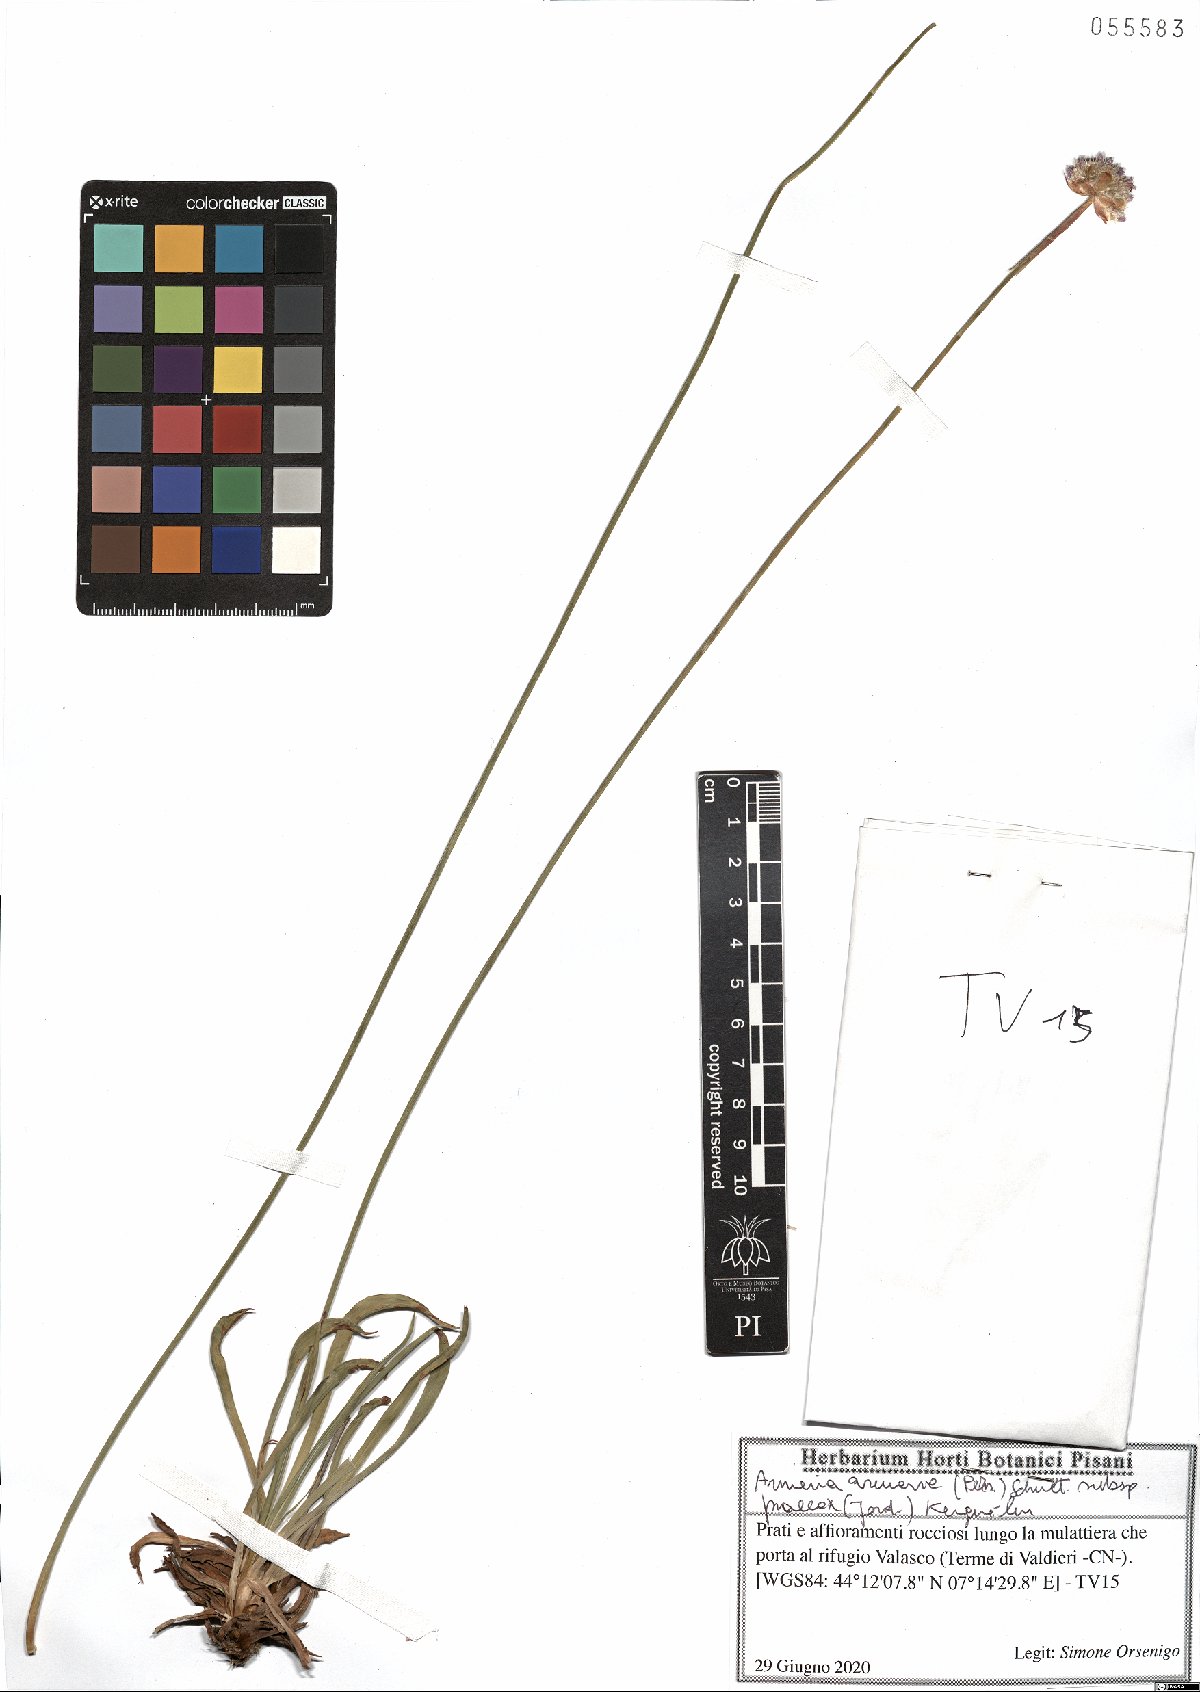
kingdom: Plantae
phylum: Tracheophyta
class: Magnoliopsida
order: Caryophyllales
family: Plumbaginaceae
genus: Armeria
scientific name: Armeria arenaria
